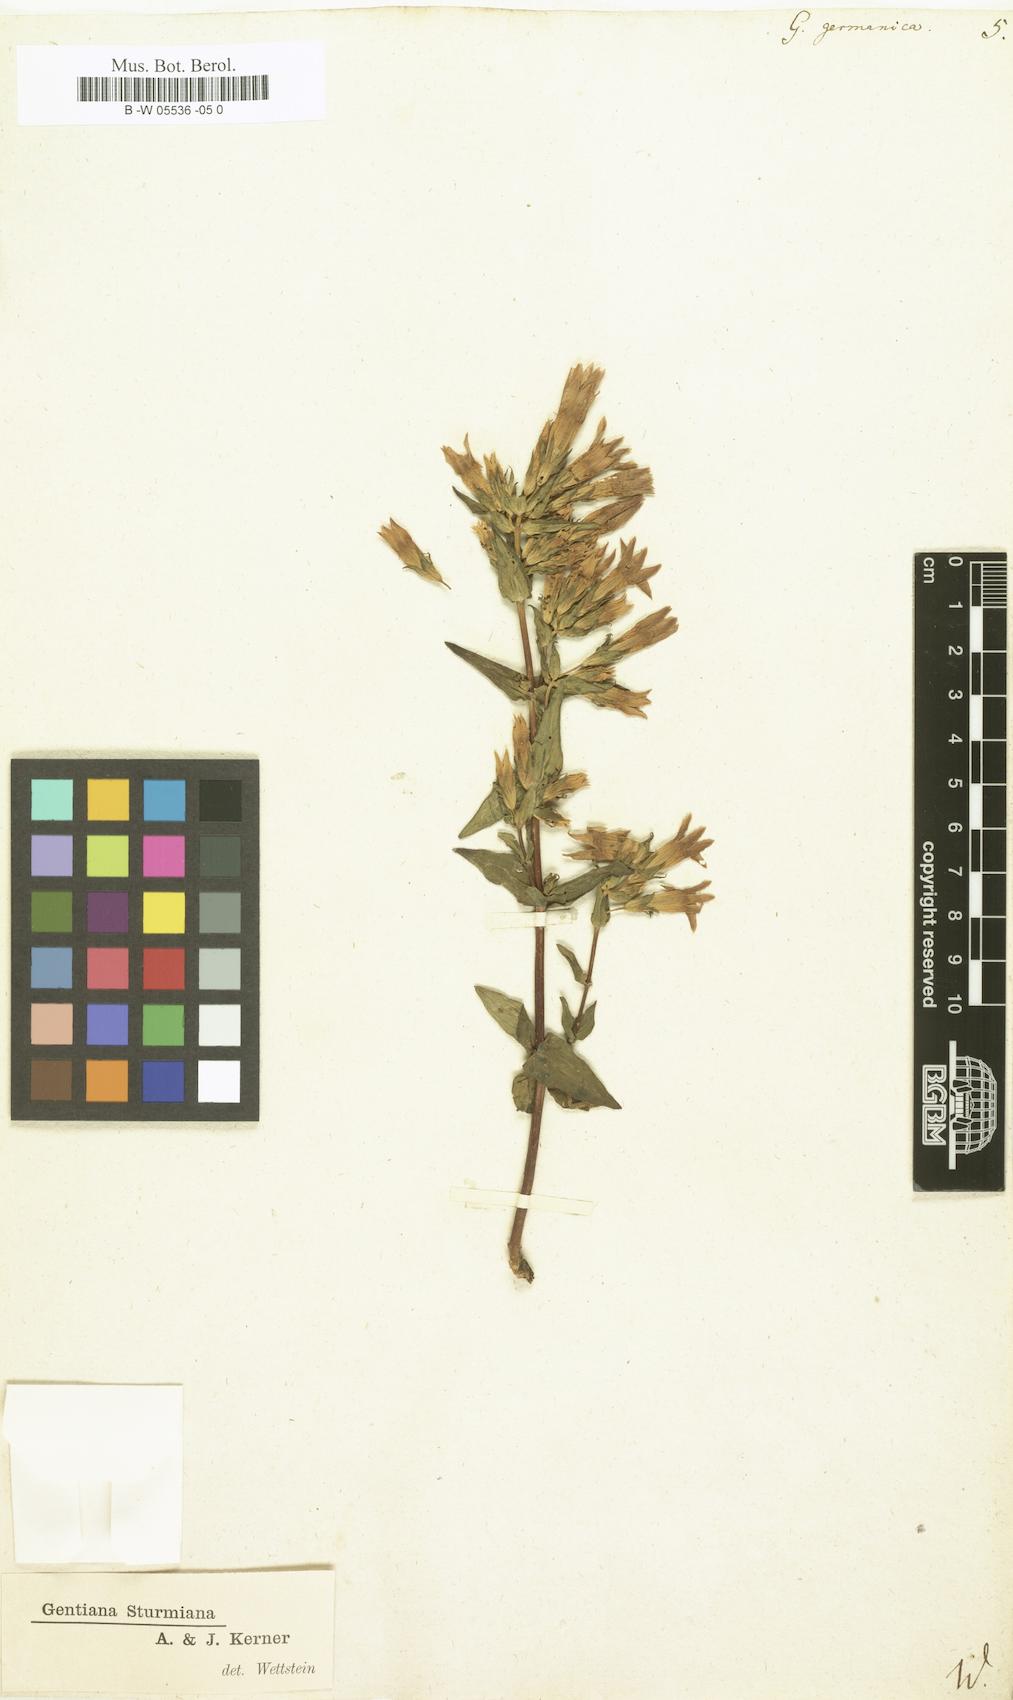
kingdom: Plantae
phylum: Tracheophyta
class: Magnoliopsida
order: Gentianales
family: Gentianaceae
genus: Gentianella
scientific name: Gentianella
